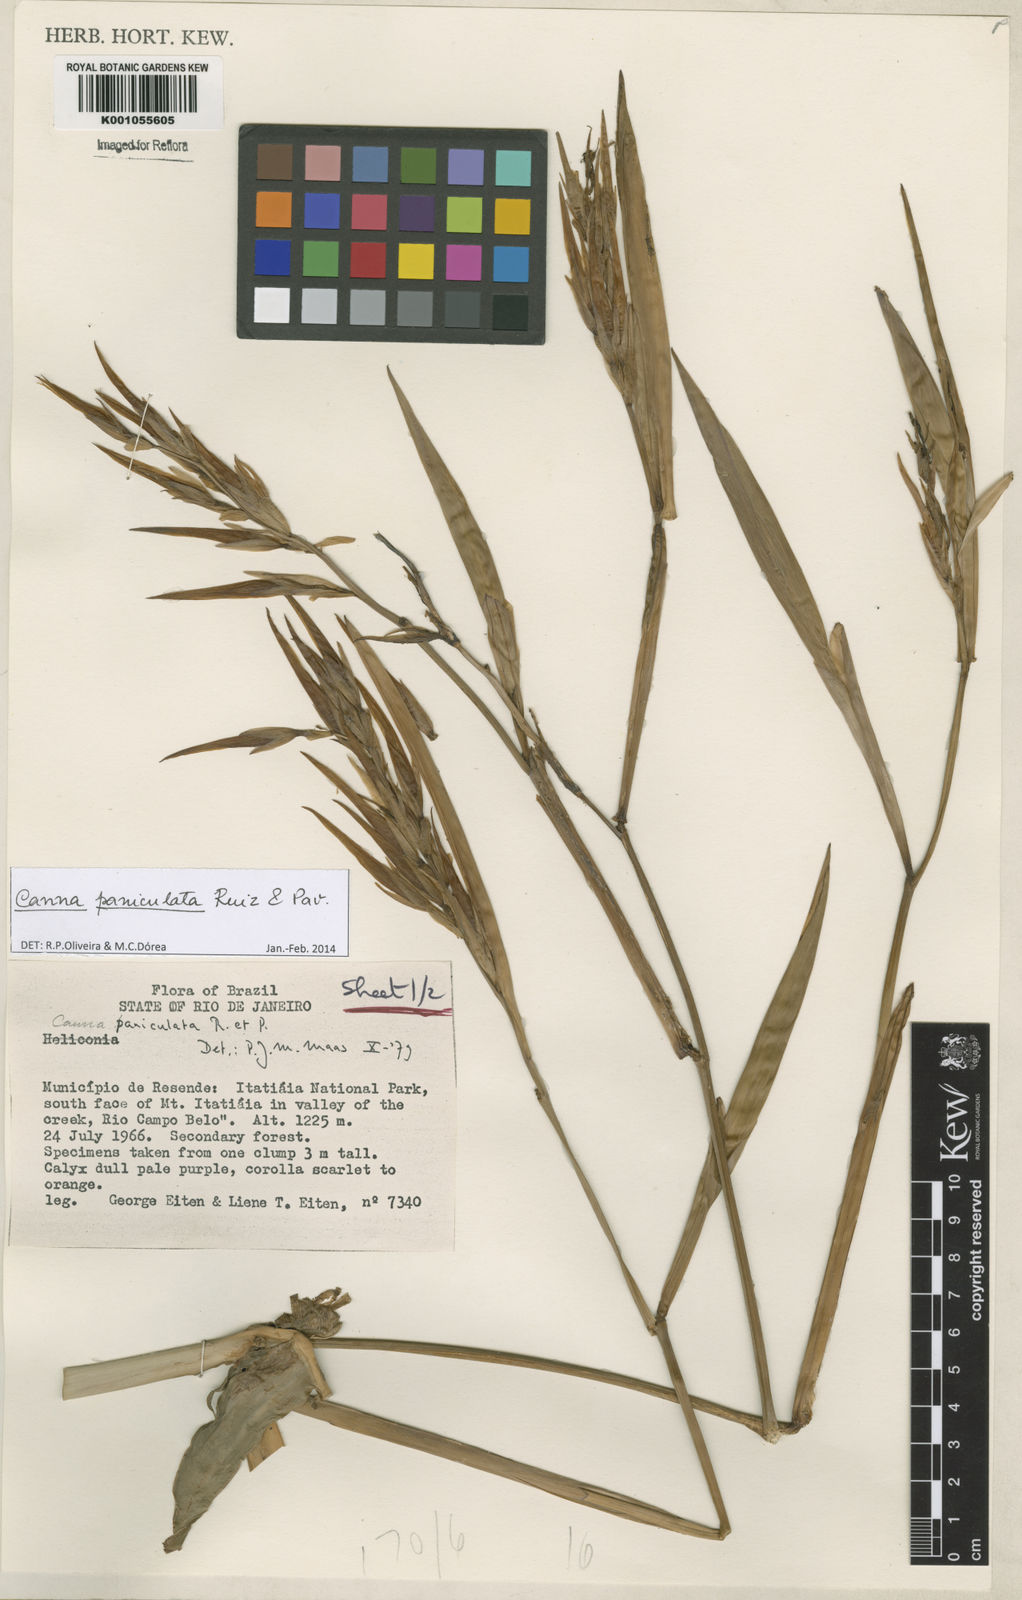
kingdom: Plantae
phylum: Tracheophyta
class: Liliopsida
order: Zingiberales
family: Cannaceae
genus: Canna
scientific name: Canna paniculata
